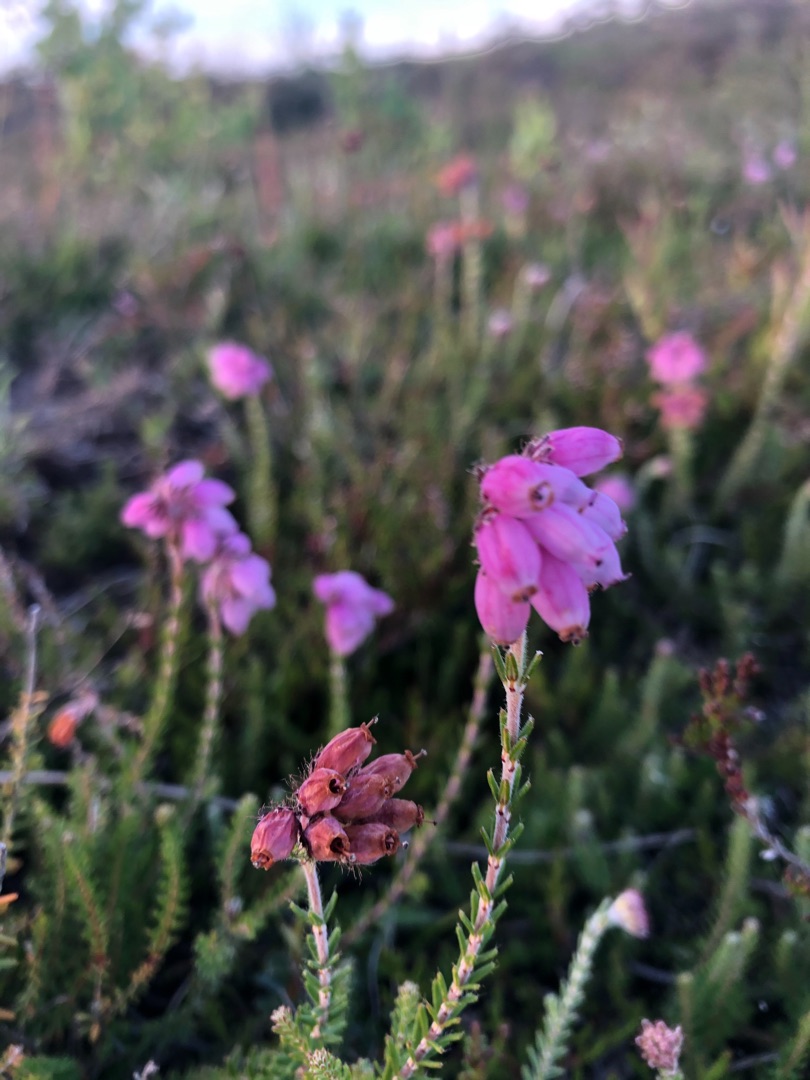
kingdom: Plantae
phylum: Tracheophyta
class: Magnoliopsida
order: Ericales
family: Ericaceae
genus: Erica
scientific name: Erica tetralix
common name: Klokkelyng
